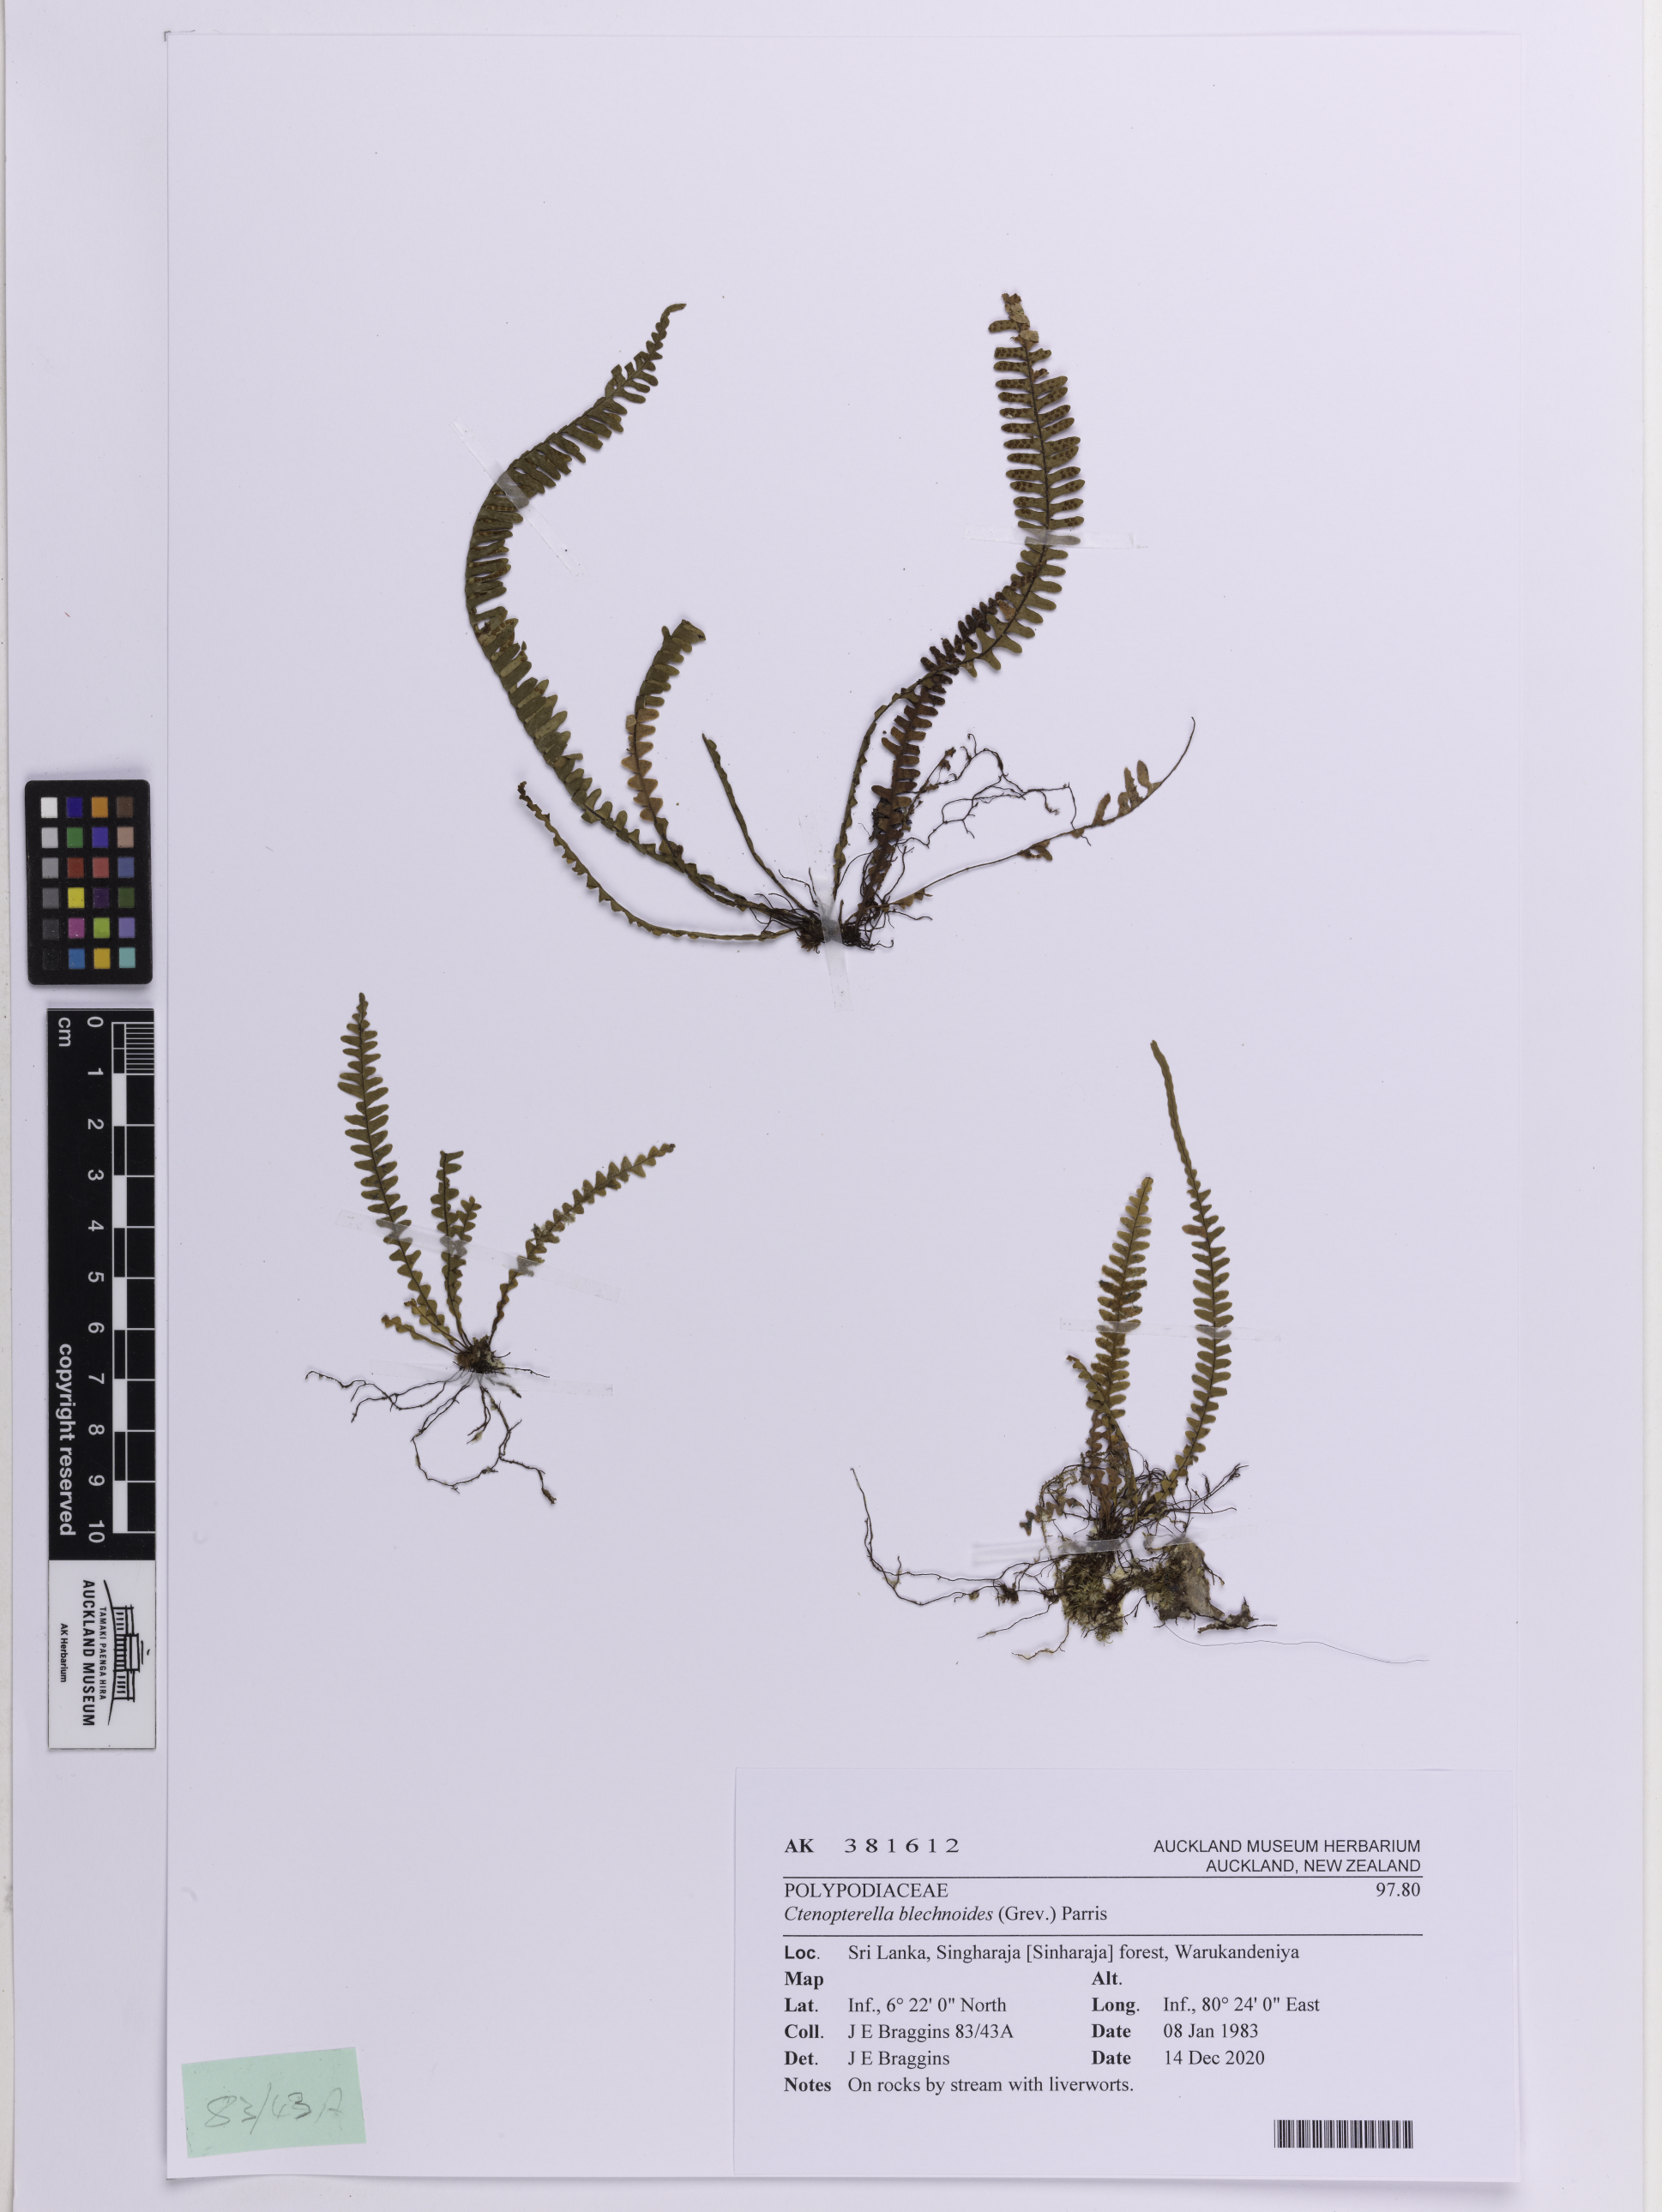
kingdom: Plantae
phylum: Tracheophyta
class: Polypodiopsida
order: Polypodiales
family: Polypodiaceae
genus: Ctenopterella
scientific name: Ctenopterella blechnoides
